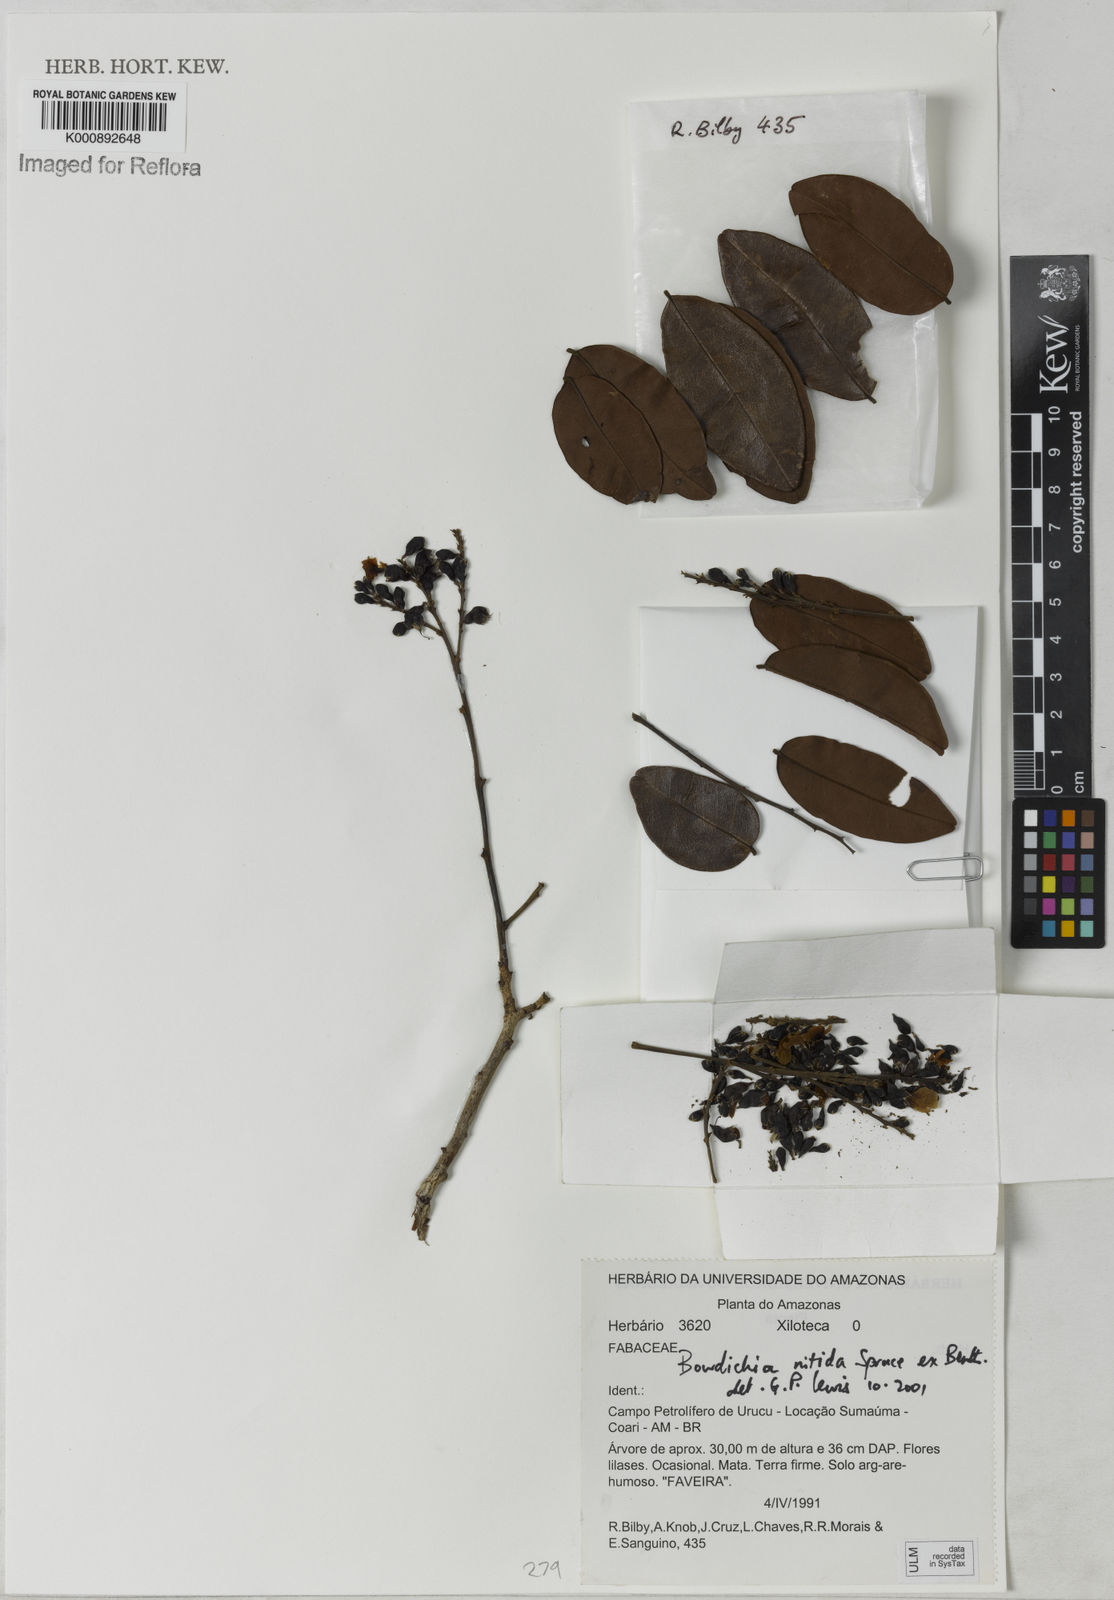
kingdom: Plantae
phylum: Tracheophyta
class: Magnoliopsida
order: Fabales
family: Fabaceae
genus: Bowdichia
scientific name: Bowdichia nitida
